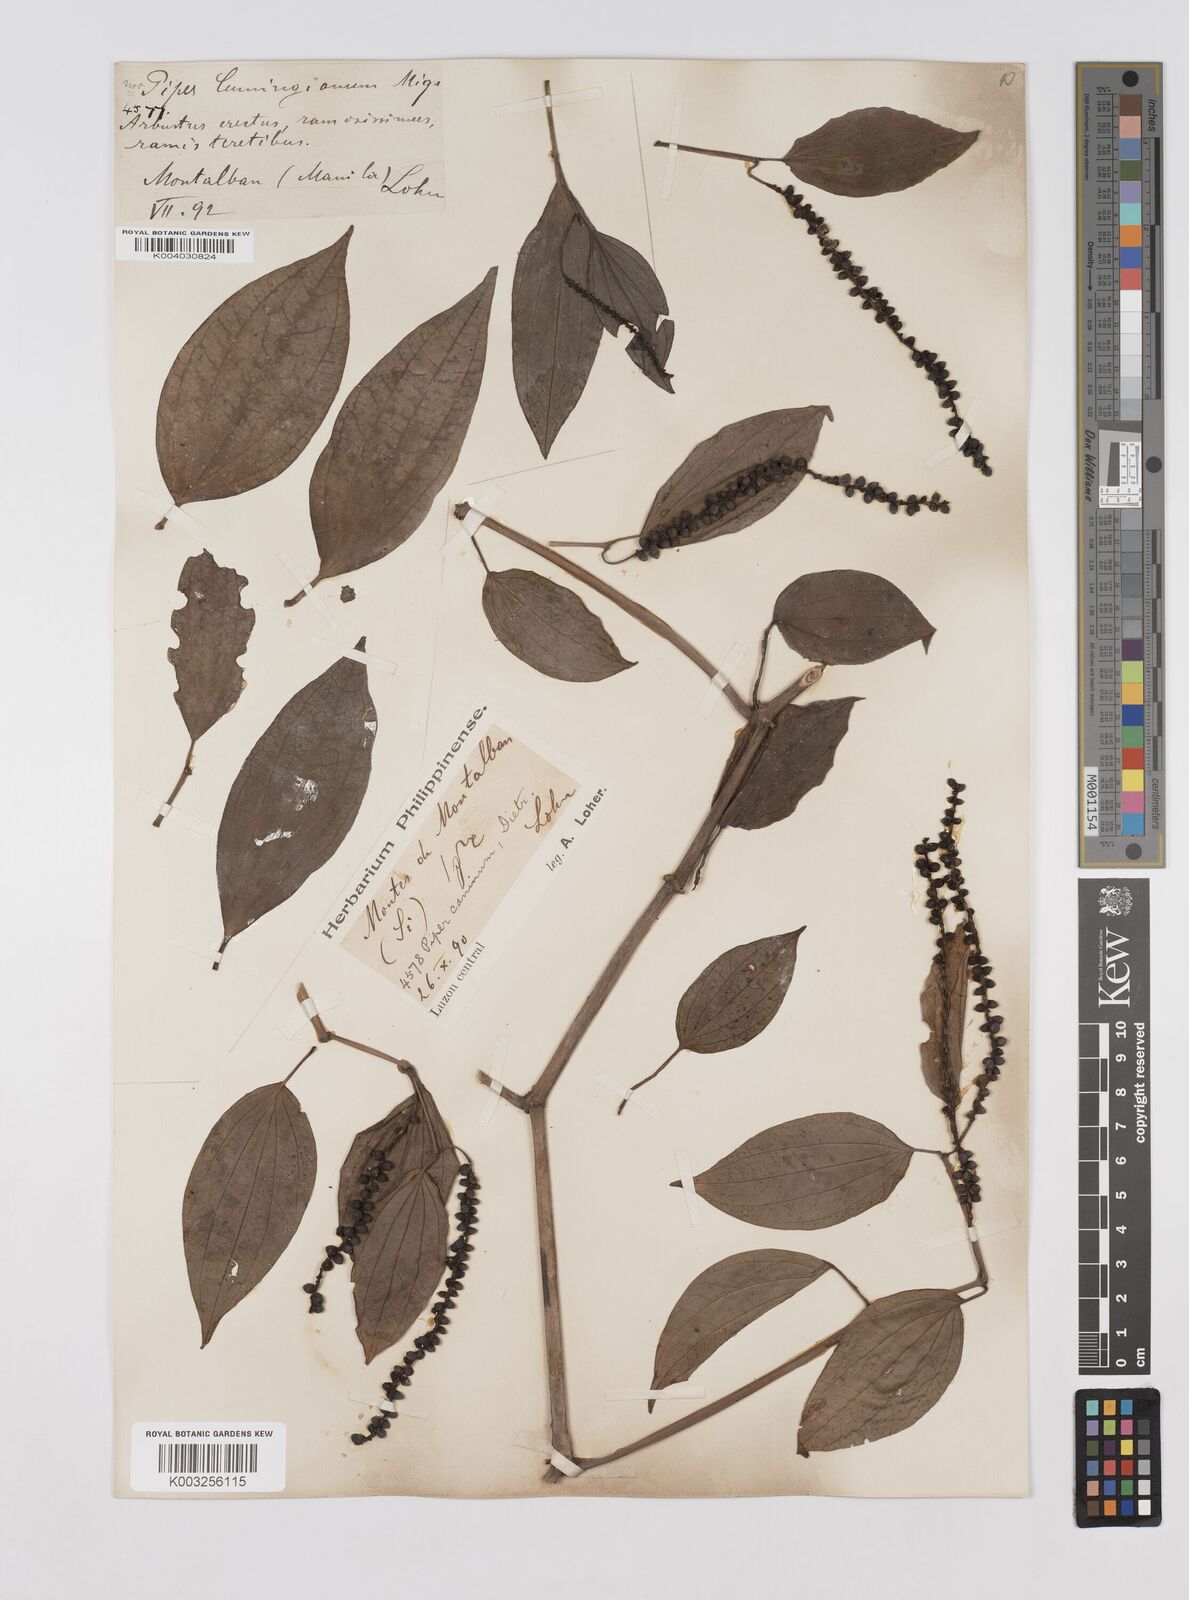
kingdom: Plantae
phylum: Tracheophyta
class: Magnoliopsida
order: Piperales
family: Piperaceae
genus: Piper
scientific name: Piper lanatum
